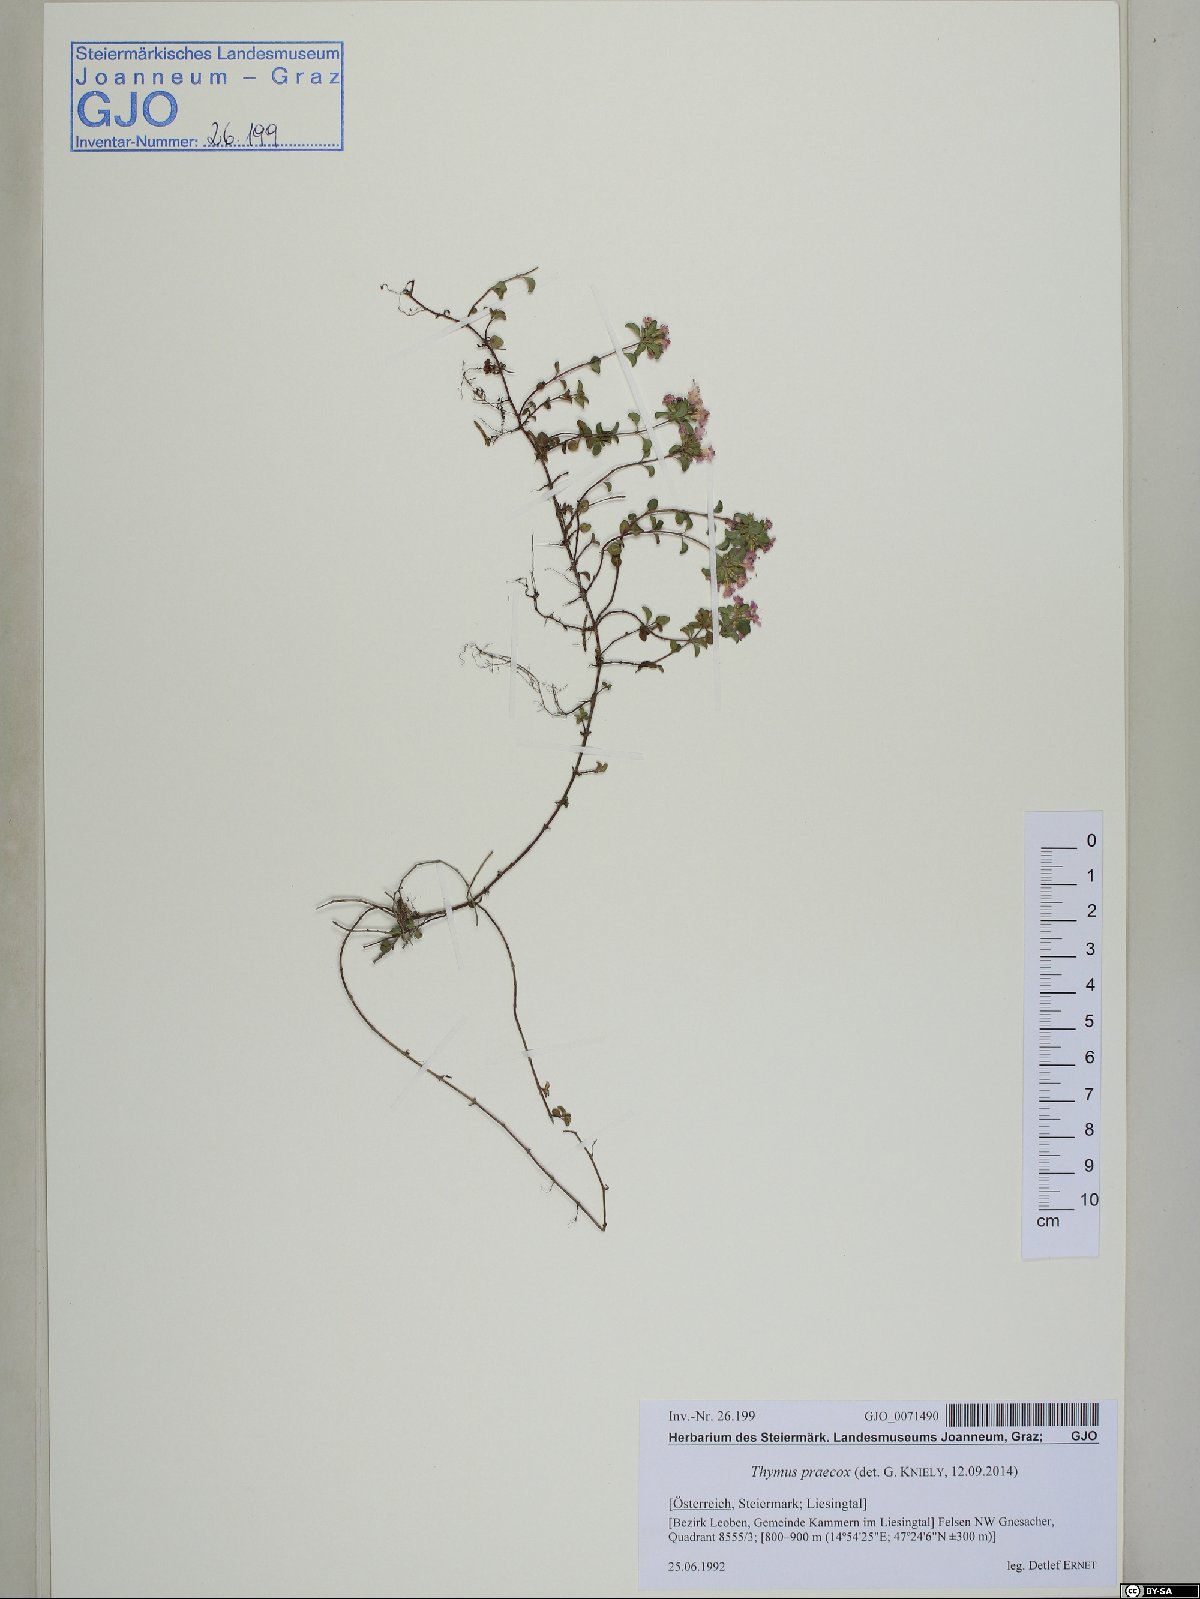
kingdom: Plantae
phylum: Tracheophyta
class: Magnoliopsida
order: Lamiales
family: Lamiaceae
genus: Thymus
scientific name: Thymus praecox
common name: Wild thyme
